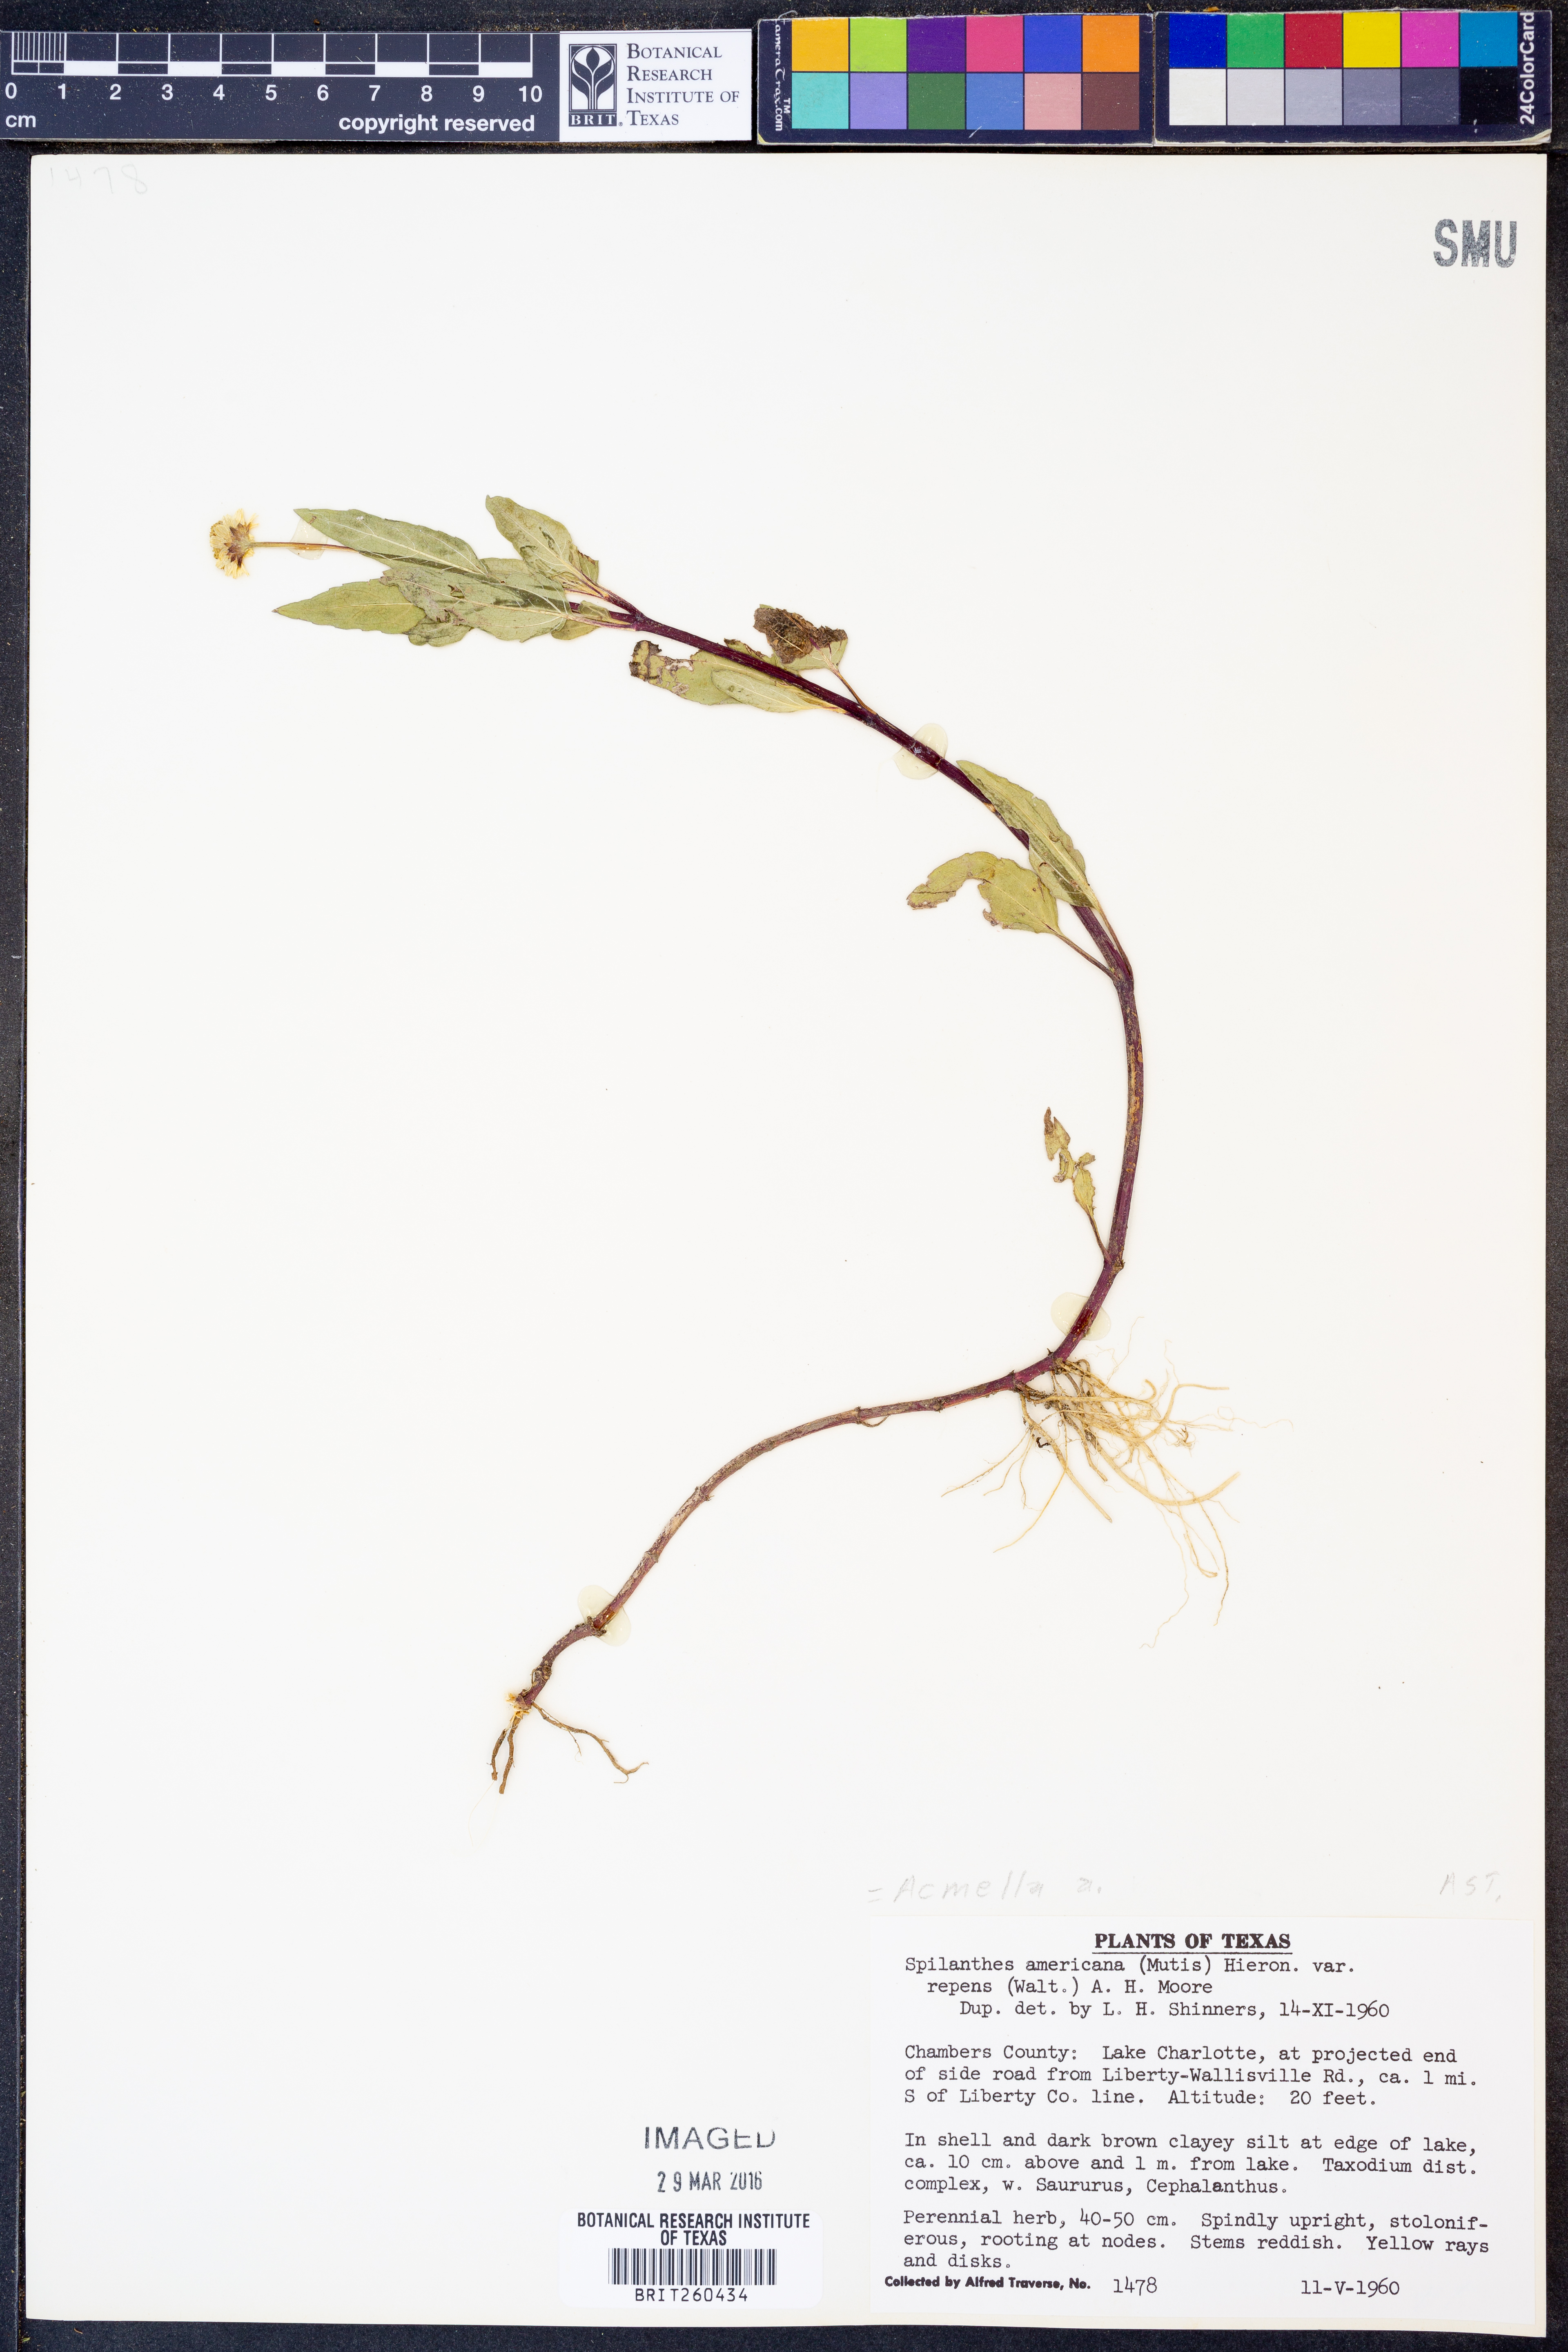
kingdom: Plantae
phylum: Tracheophyta
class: Magnoliopsida
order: Asterales
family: Asteraceae
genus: Acmella
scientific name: Acmella
